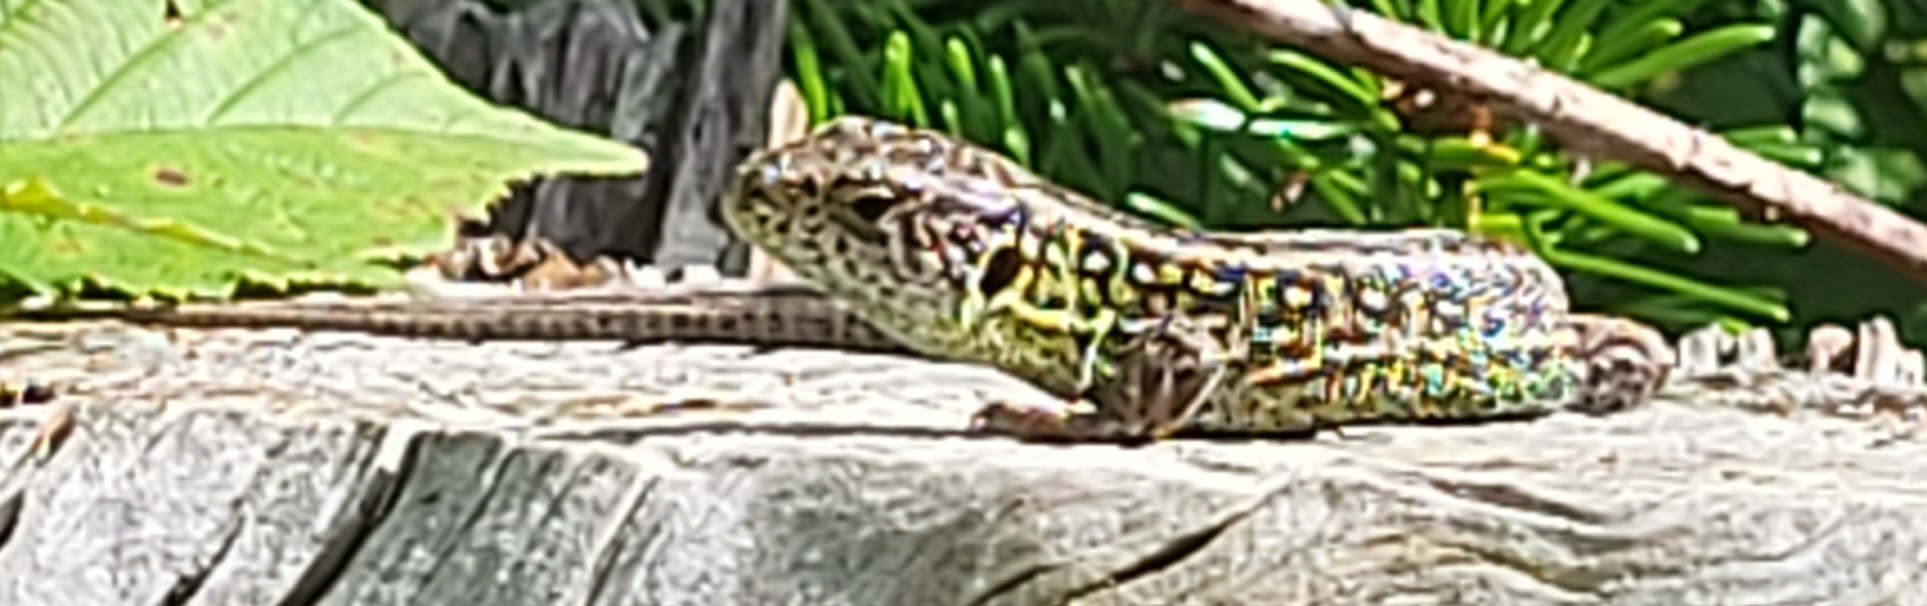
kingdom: Animalia
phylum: Chordata
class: Squamata
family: Lacertidae
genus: Lacerta
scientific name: Lacerta agilis
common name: Markfirben
